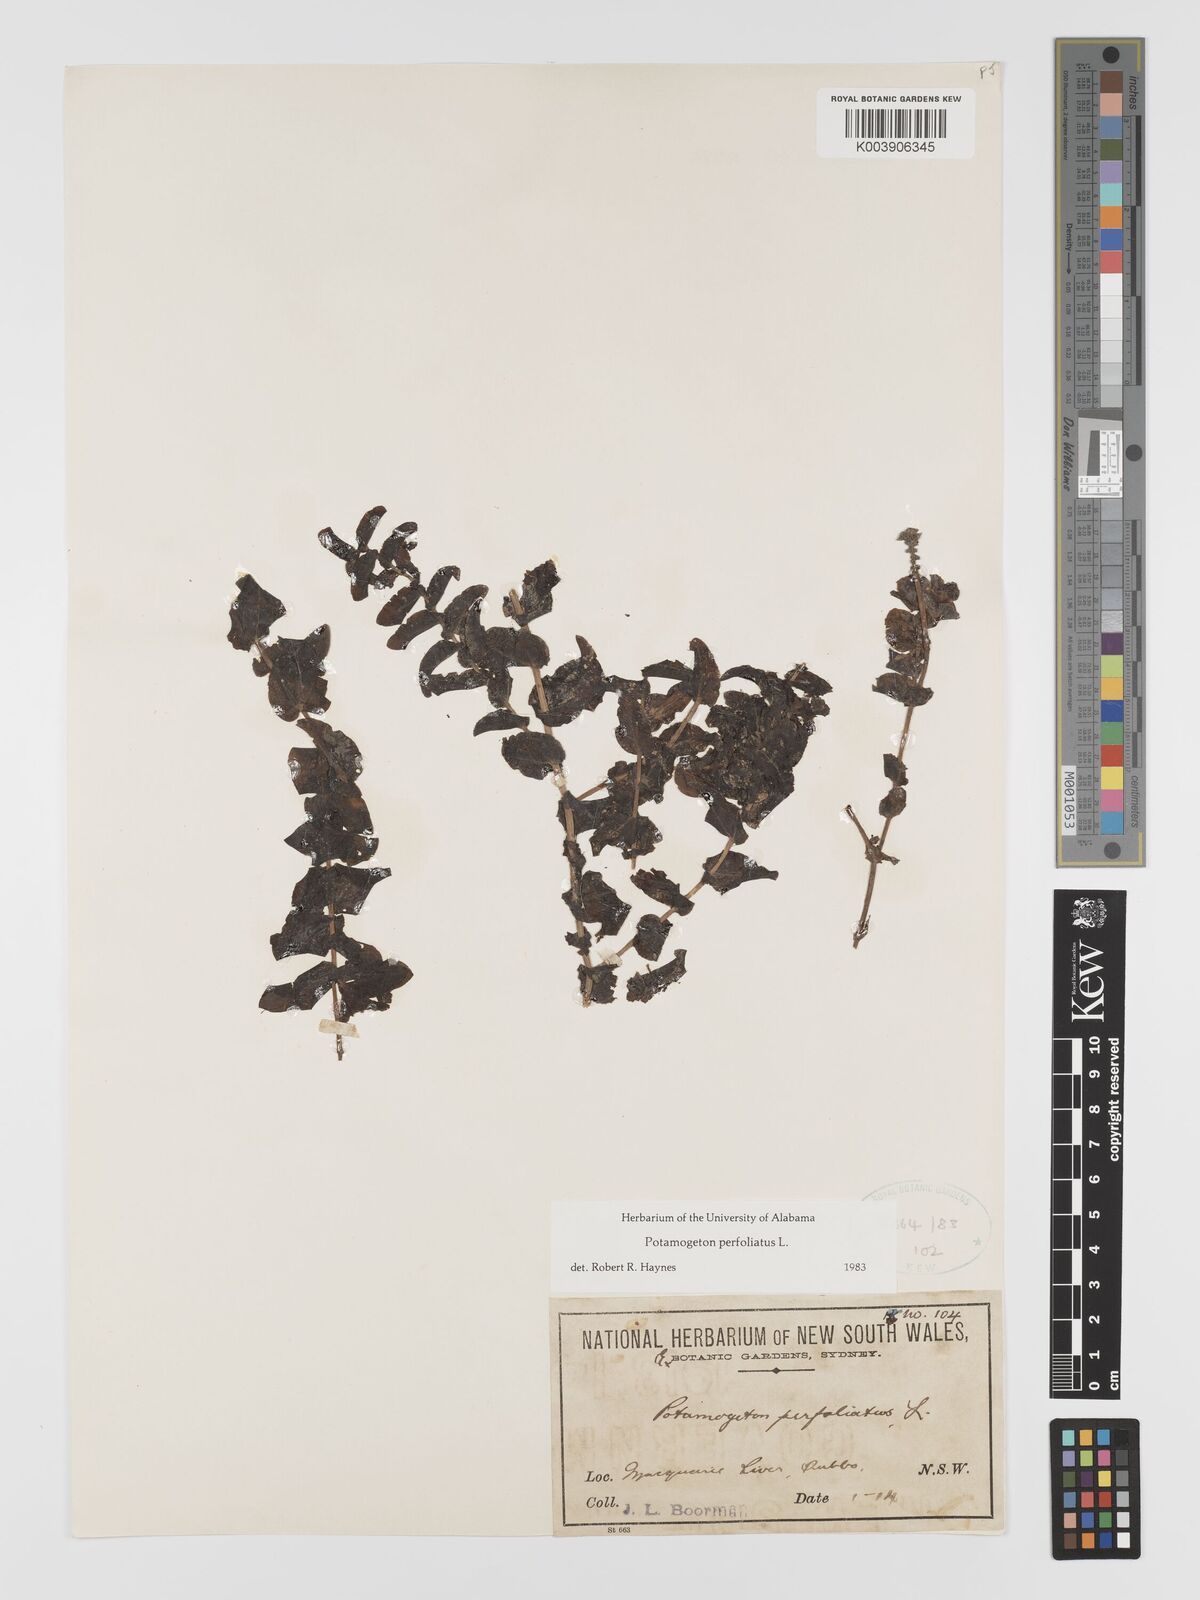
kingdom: Plantae
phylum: Tracheophyta
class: Liliopsida
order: Alismatales
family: Potamogetonaceae
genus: Potamogeton
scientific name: Potamogeton perfoliatus
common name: Perfoliate pondweed
